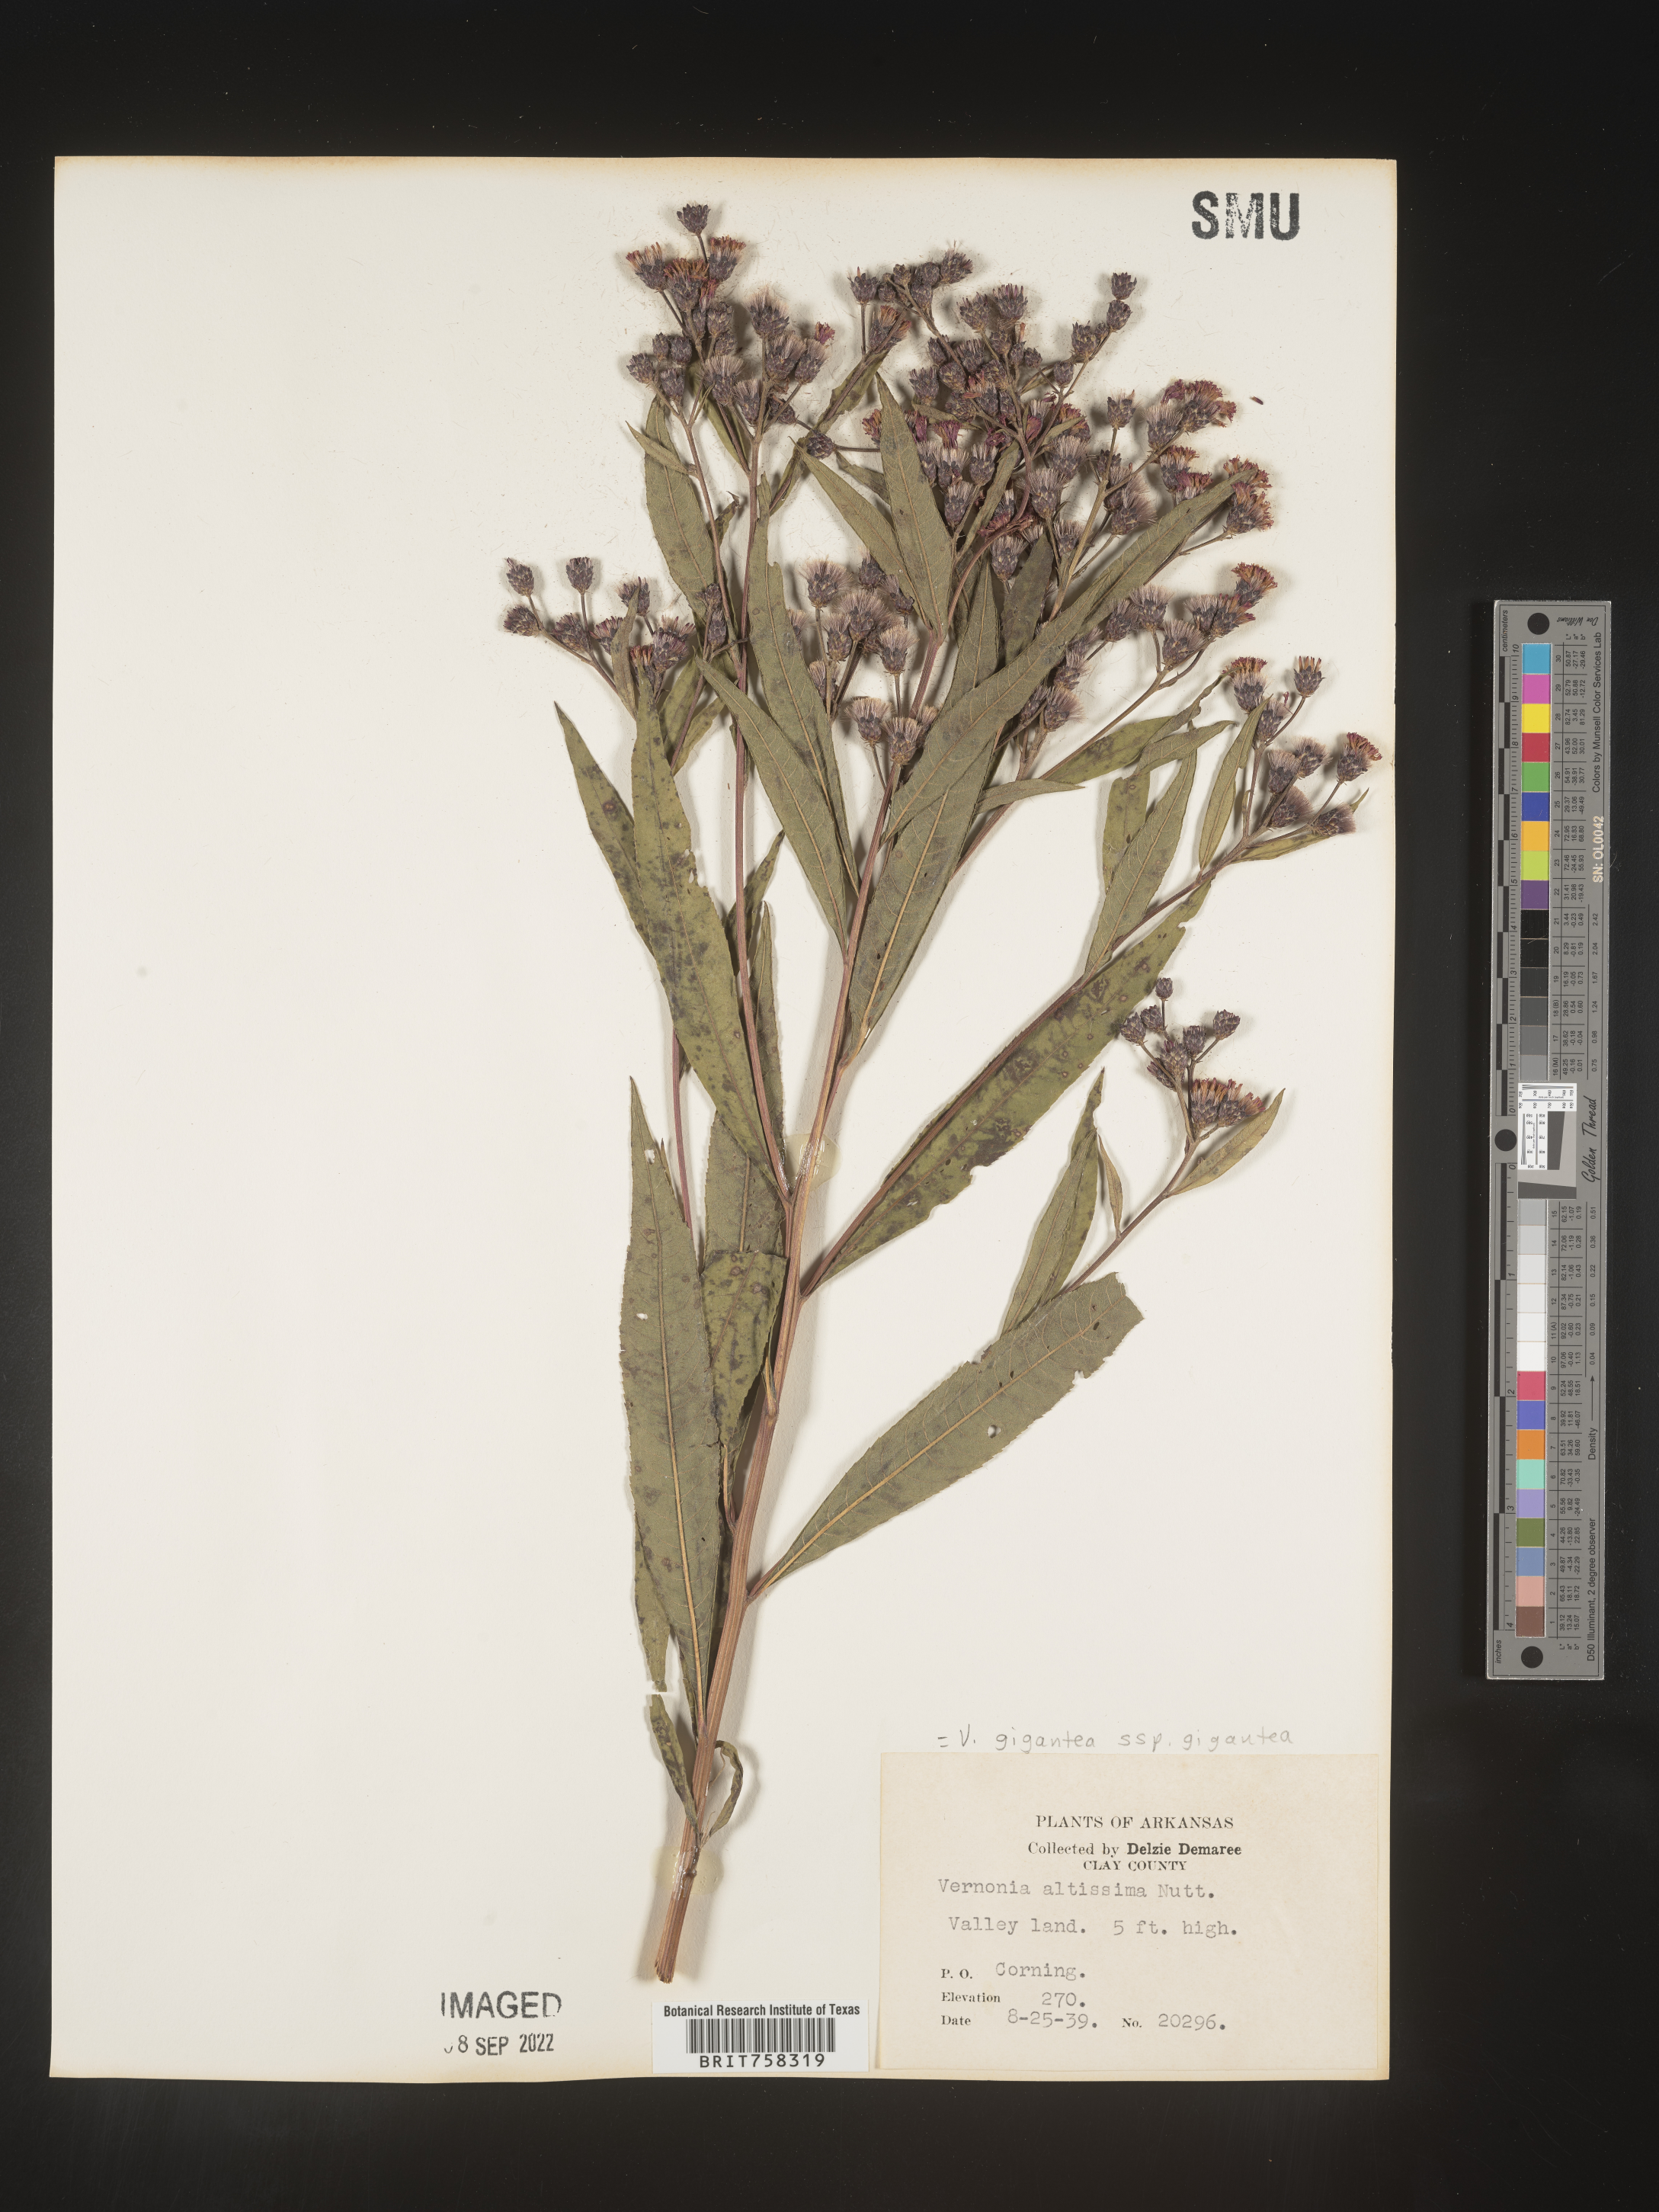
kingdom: Plantae
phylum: Tracheophyta
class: Magnoliopsida
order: Asterales
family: Asteraceae
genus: Vernonia
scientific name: Vernonia gigantea
